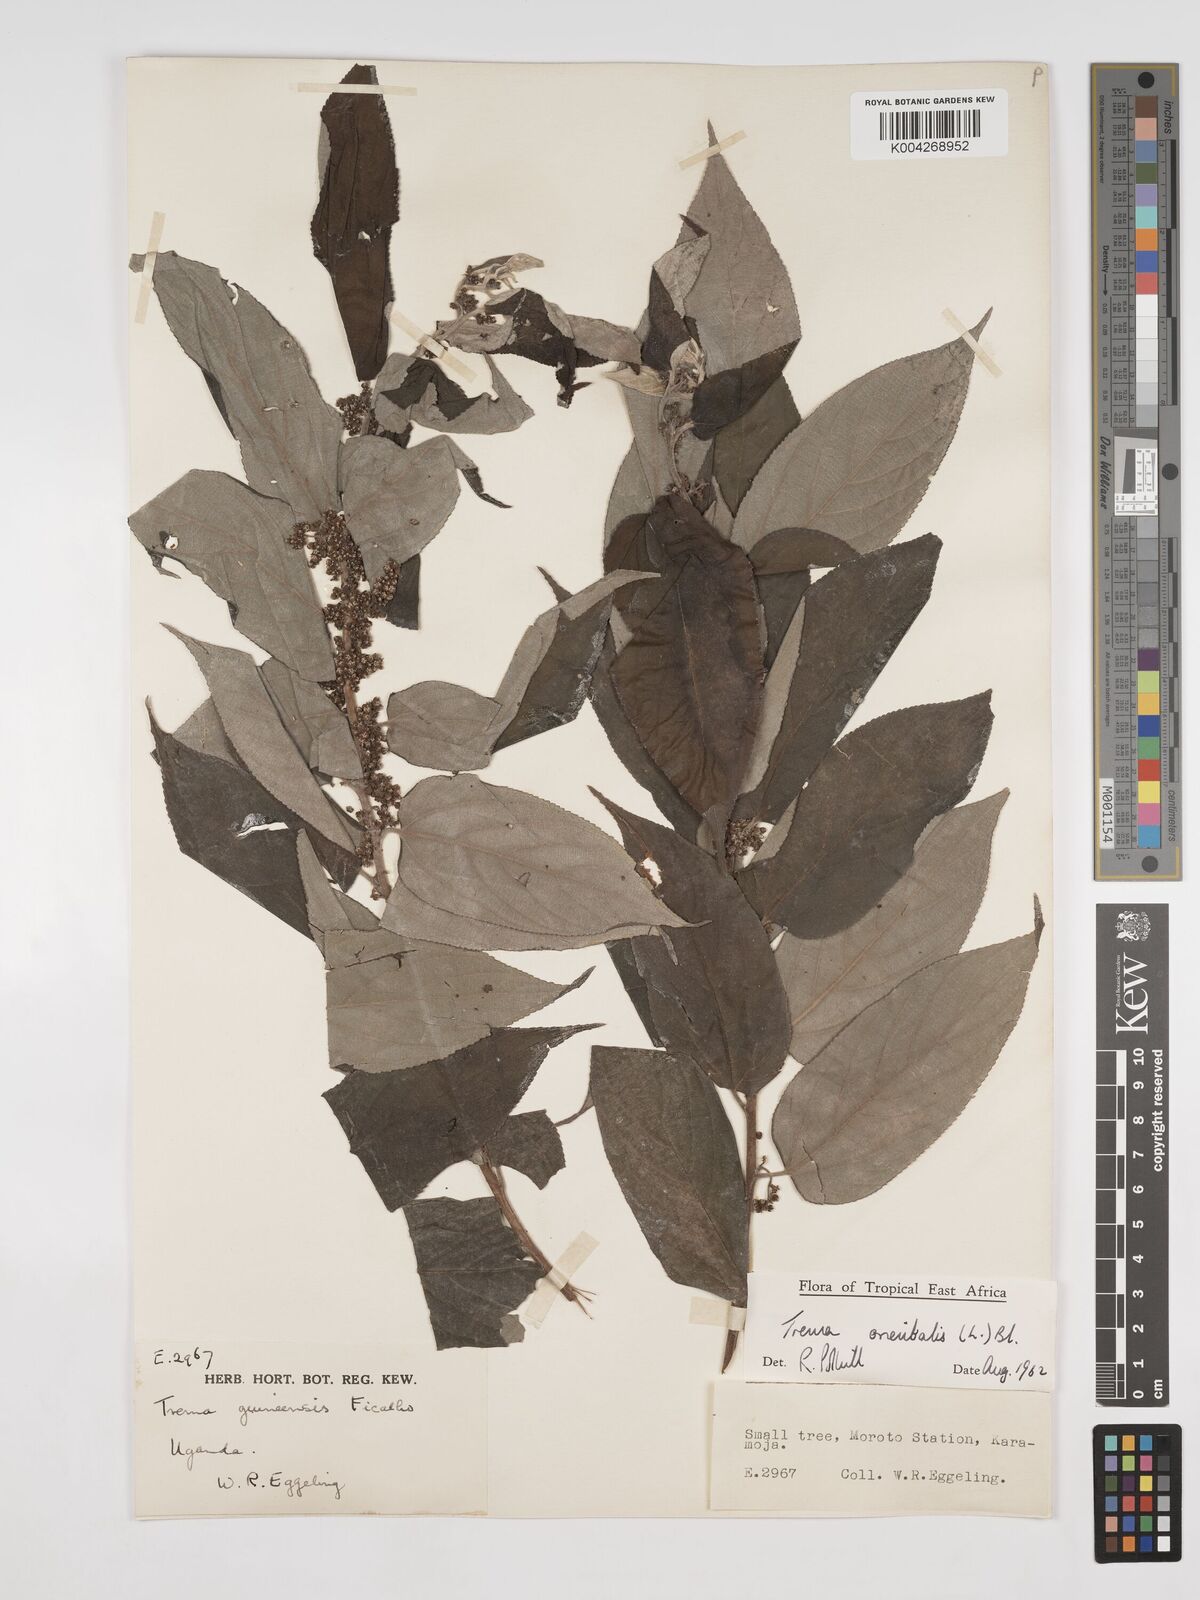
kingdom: Plantae
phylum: Tracheophyta
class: Magnoliopsida
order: Rosales
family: Cannabaceae
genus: Trema
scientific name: Trema orientale
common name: Indian charcoal tree
